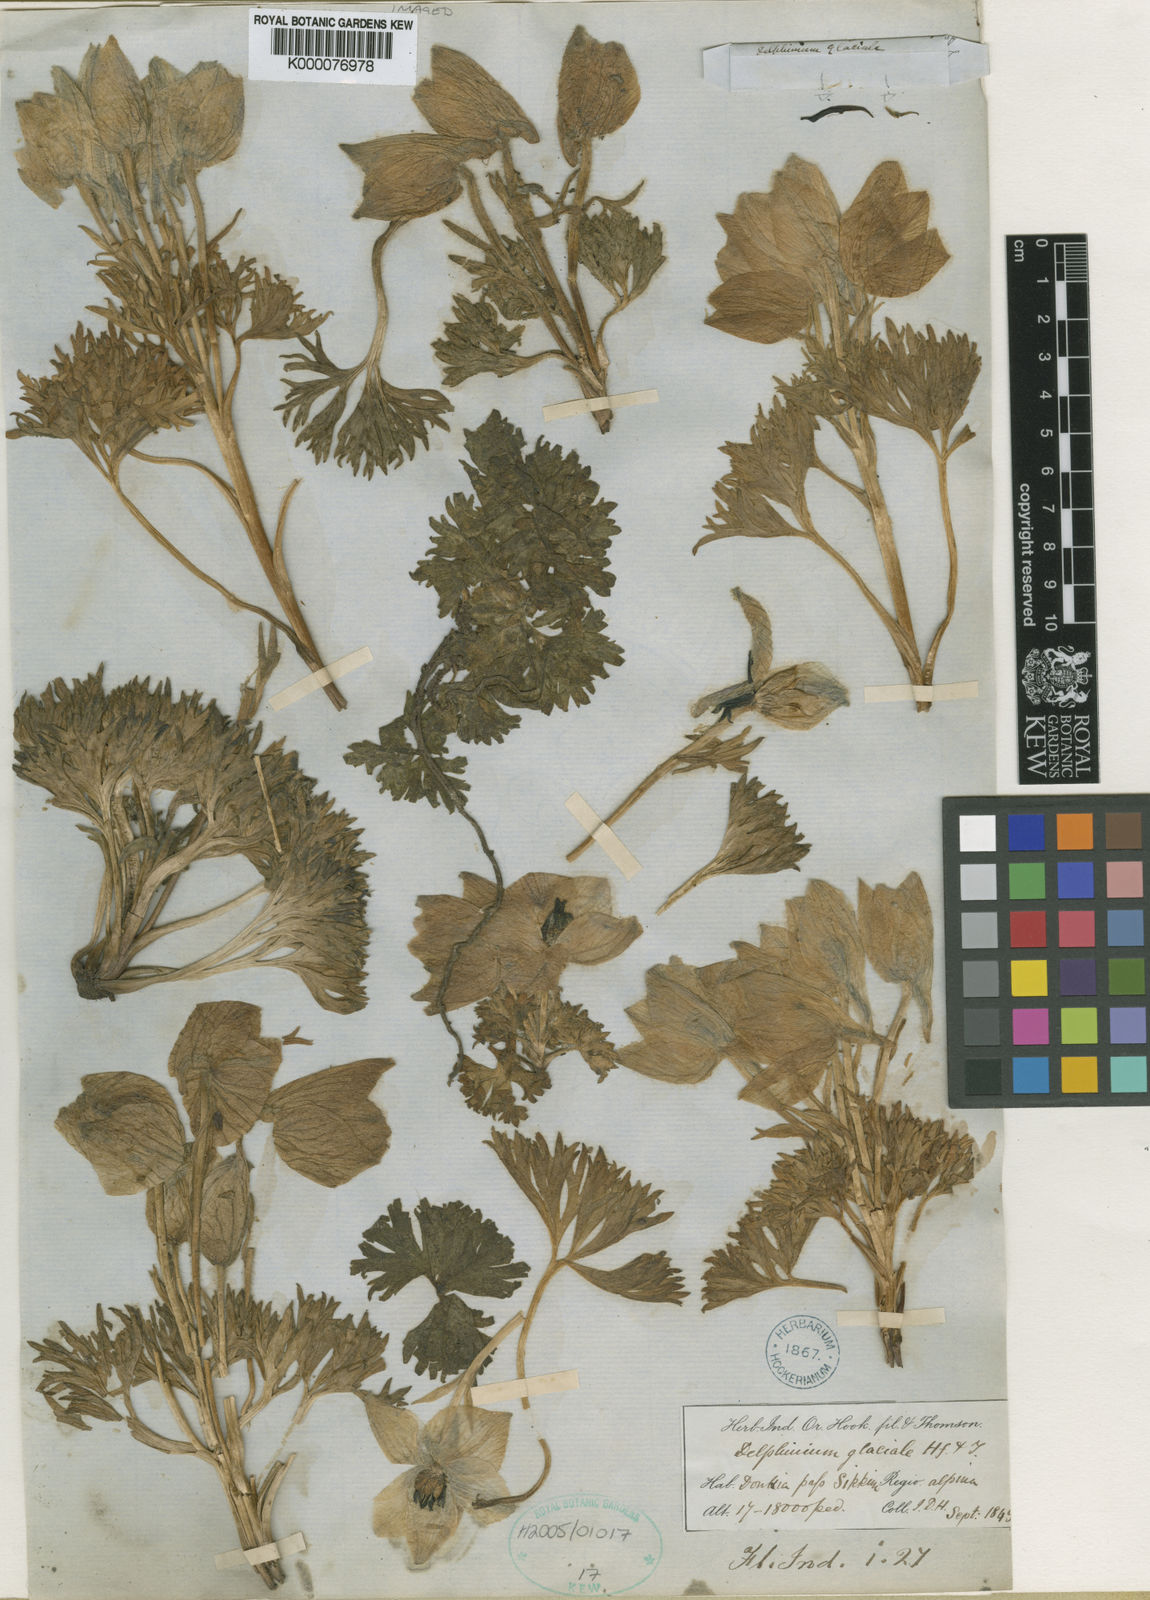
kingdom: Plantae
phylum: Tracheophyta
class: Magnoliopsida
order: Ranunculales
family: Ranunculaceae
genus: Delphinium
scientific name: Delphinium glaciale
